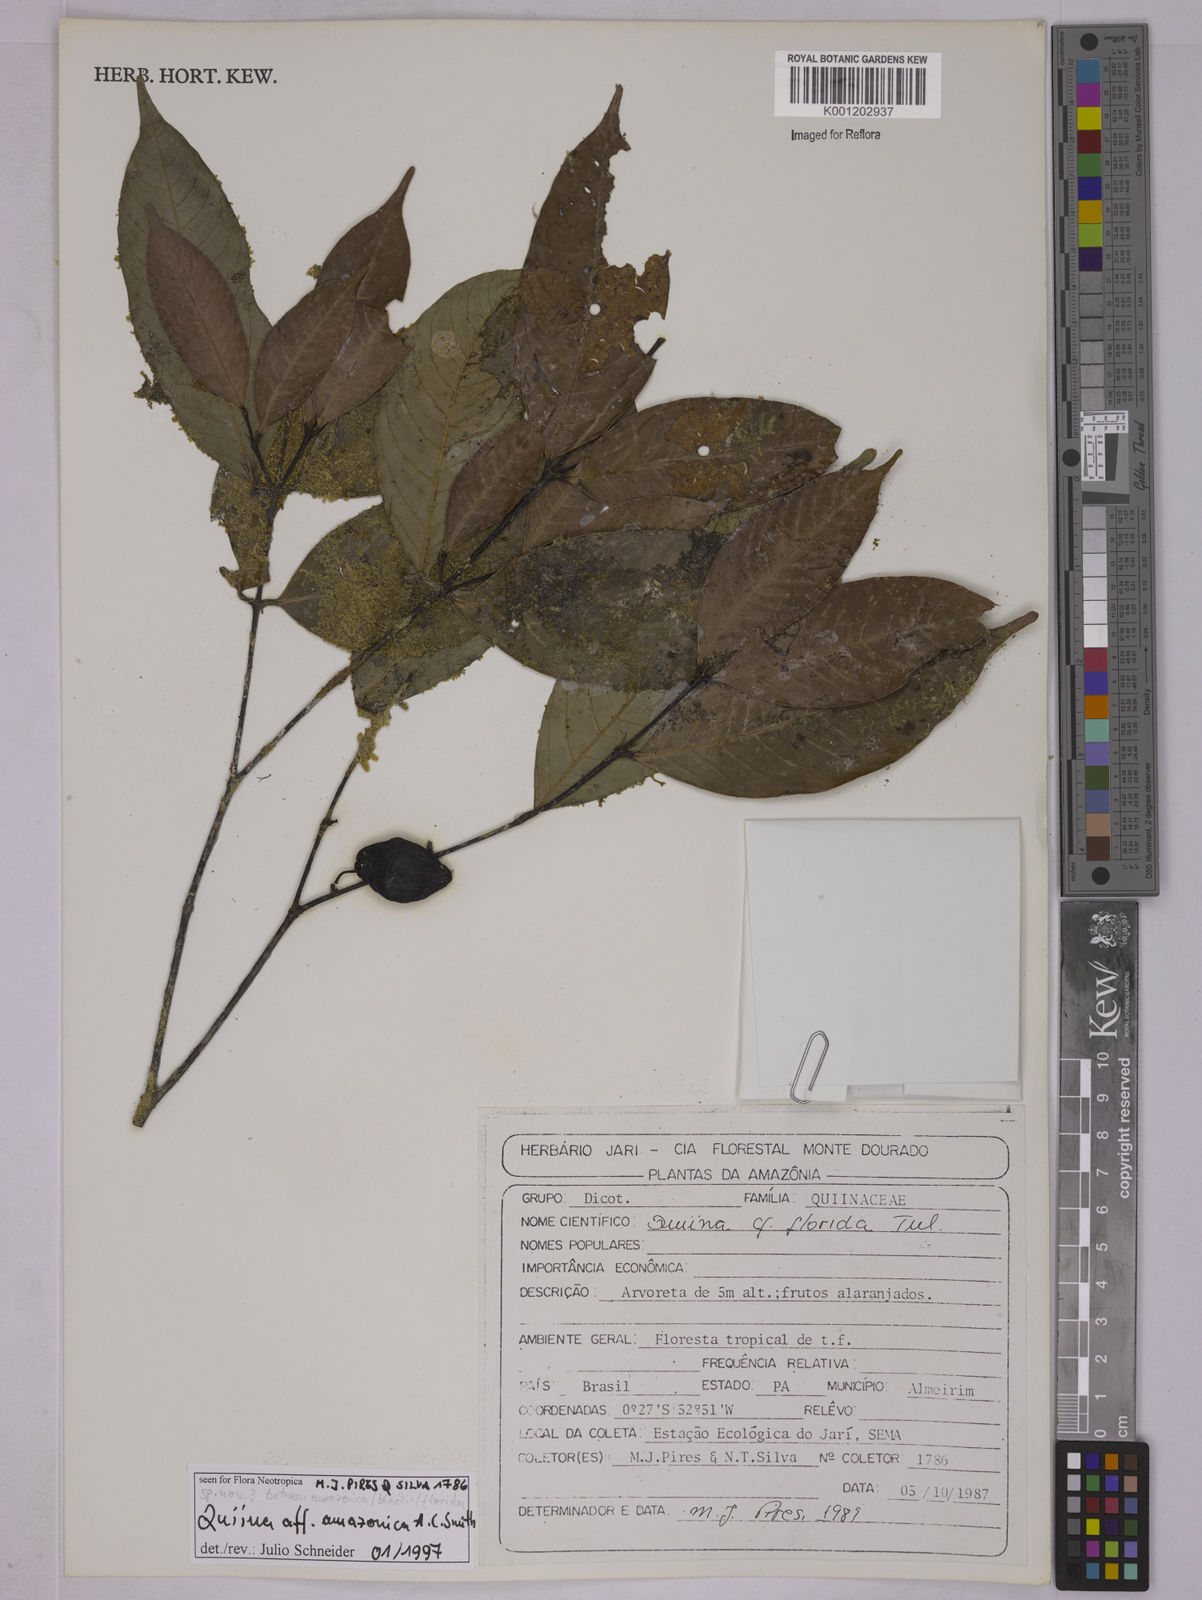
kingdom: Plantae
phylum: Tracheophyta
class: Magnoliopsida
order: Malpighiales
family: Quiinaceae
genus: Quiina
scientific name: Quiina amazonica
